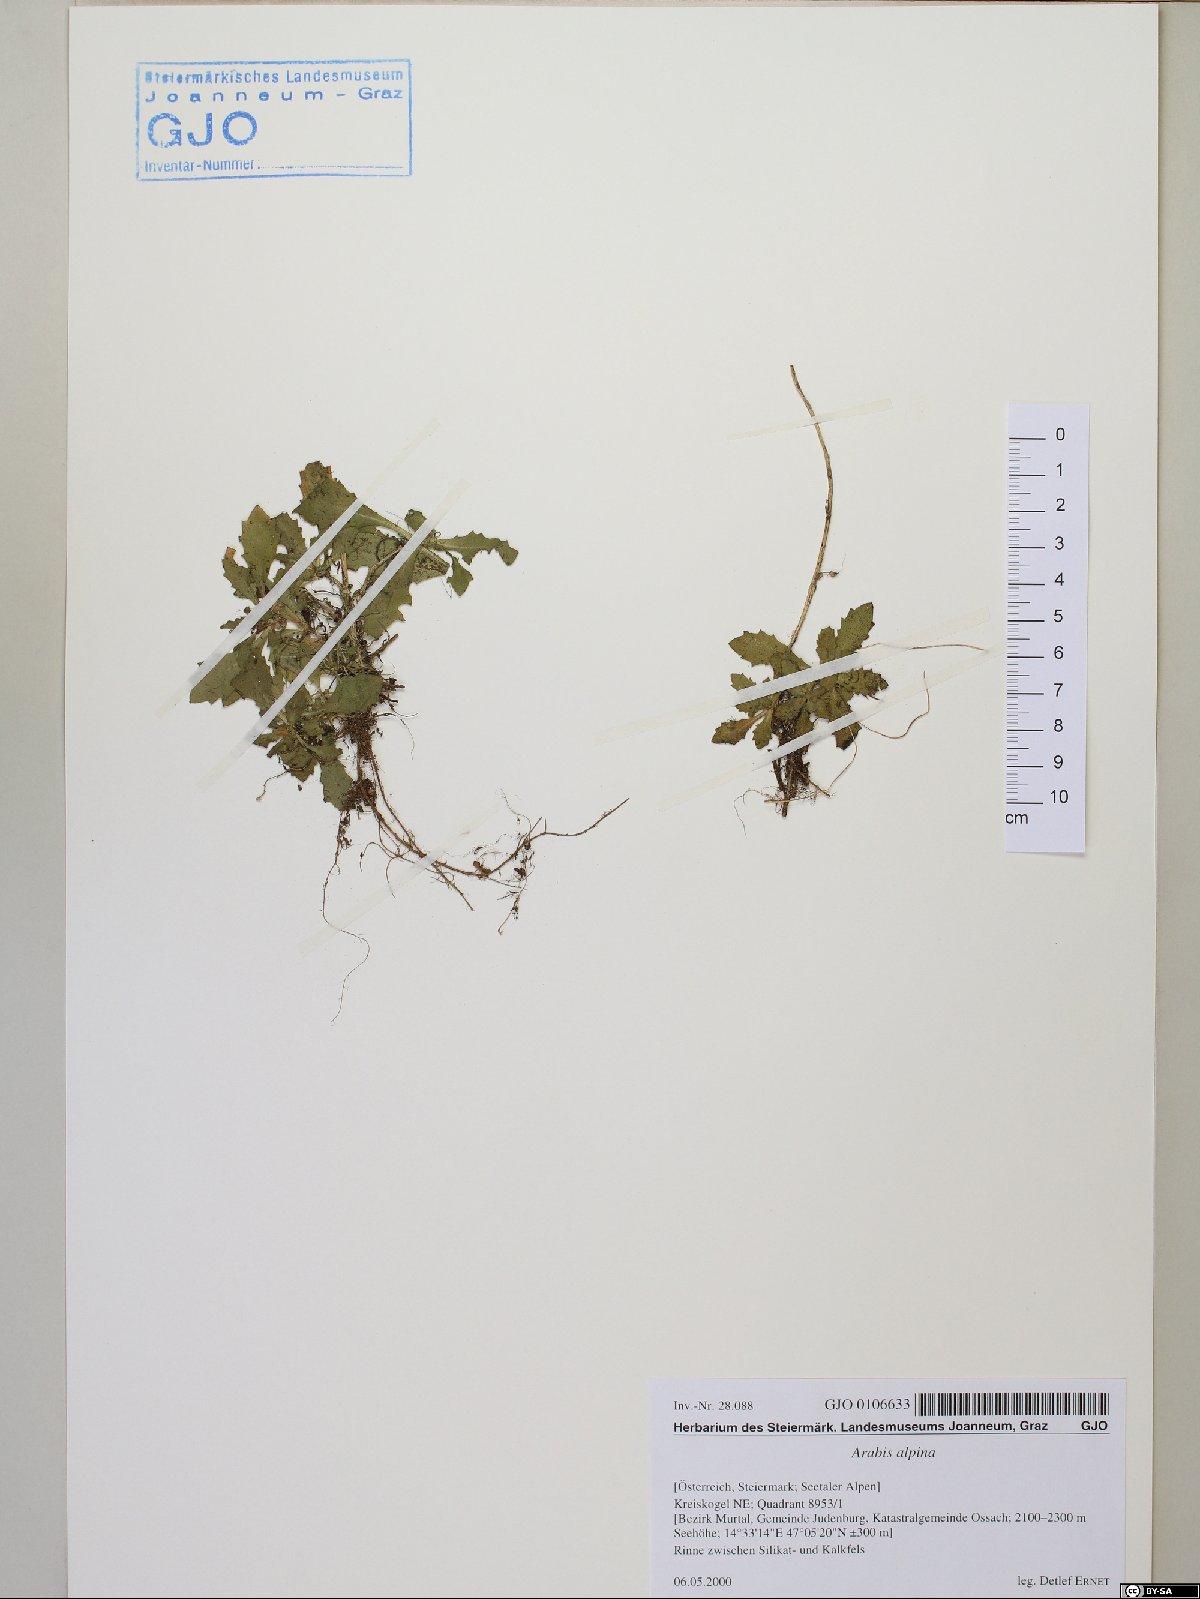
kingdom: Plantae
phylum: Tracheophyta
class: Magnoliopsida
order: Brassicales
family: Brassicaceae
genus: Arabis
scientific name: Arabis alpina
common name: Alpine rock-cress
